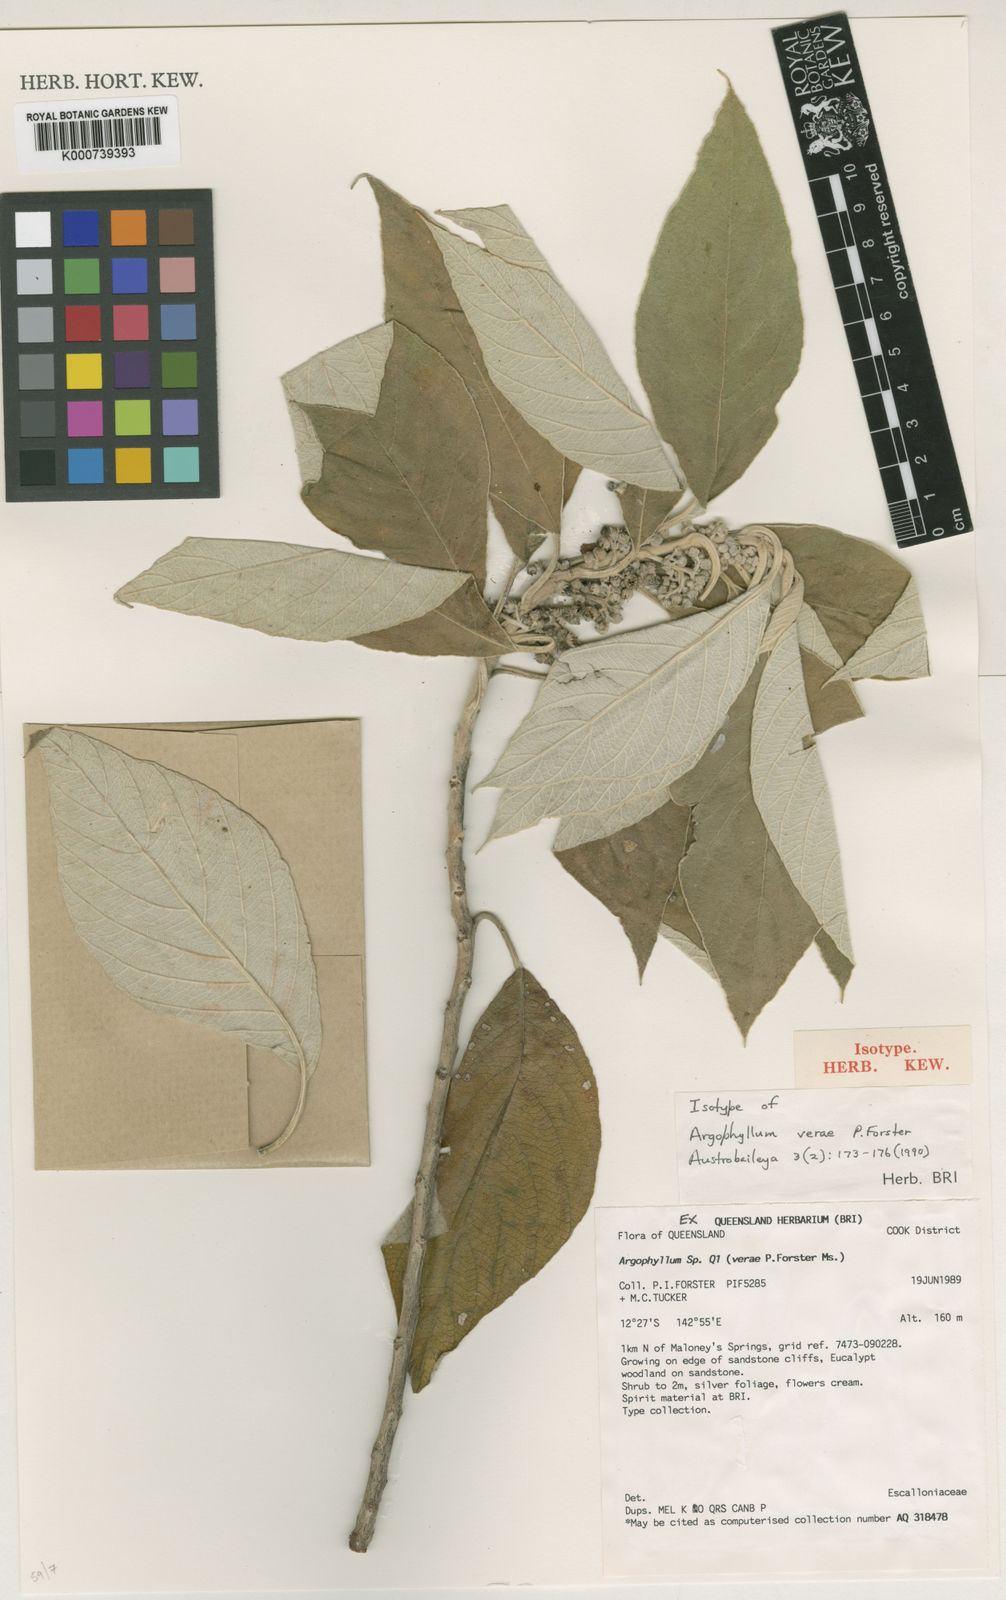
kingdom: Plantae
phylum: Tracheophyta
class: Magnoliopsida
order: Asterales
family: Argophyllaceae
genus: Argophyllum
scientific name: Argophyllum verae
